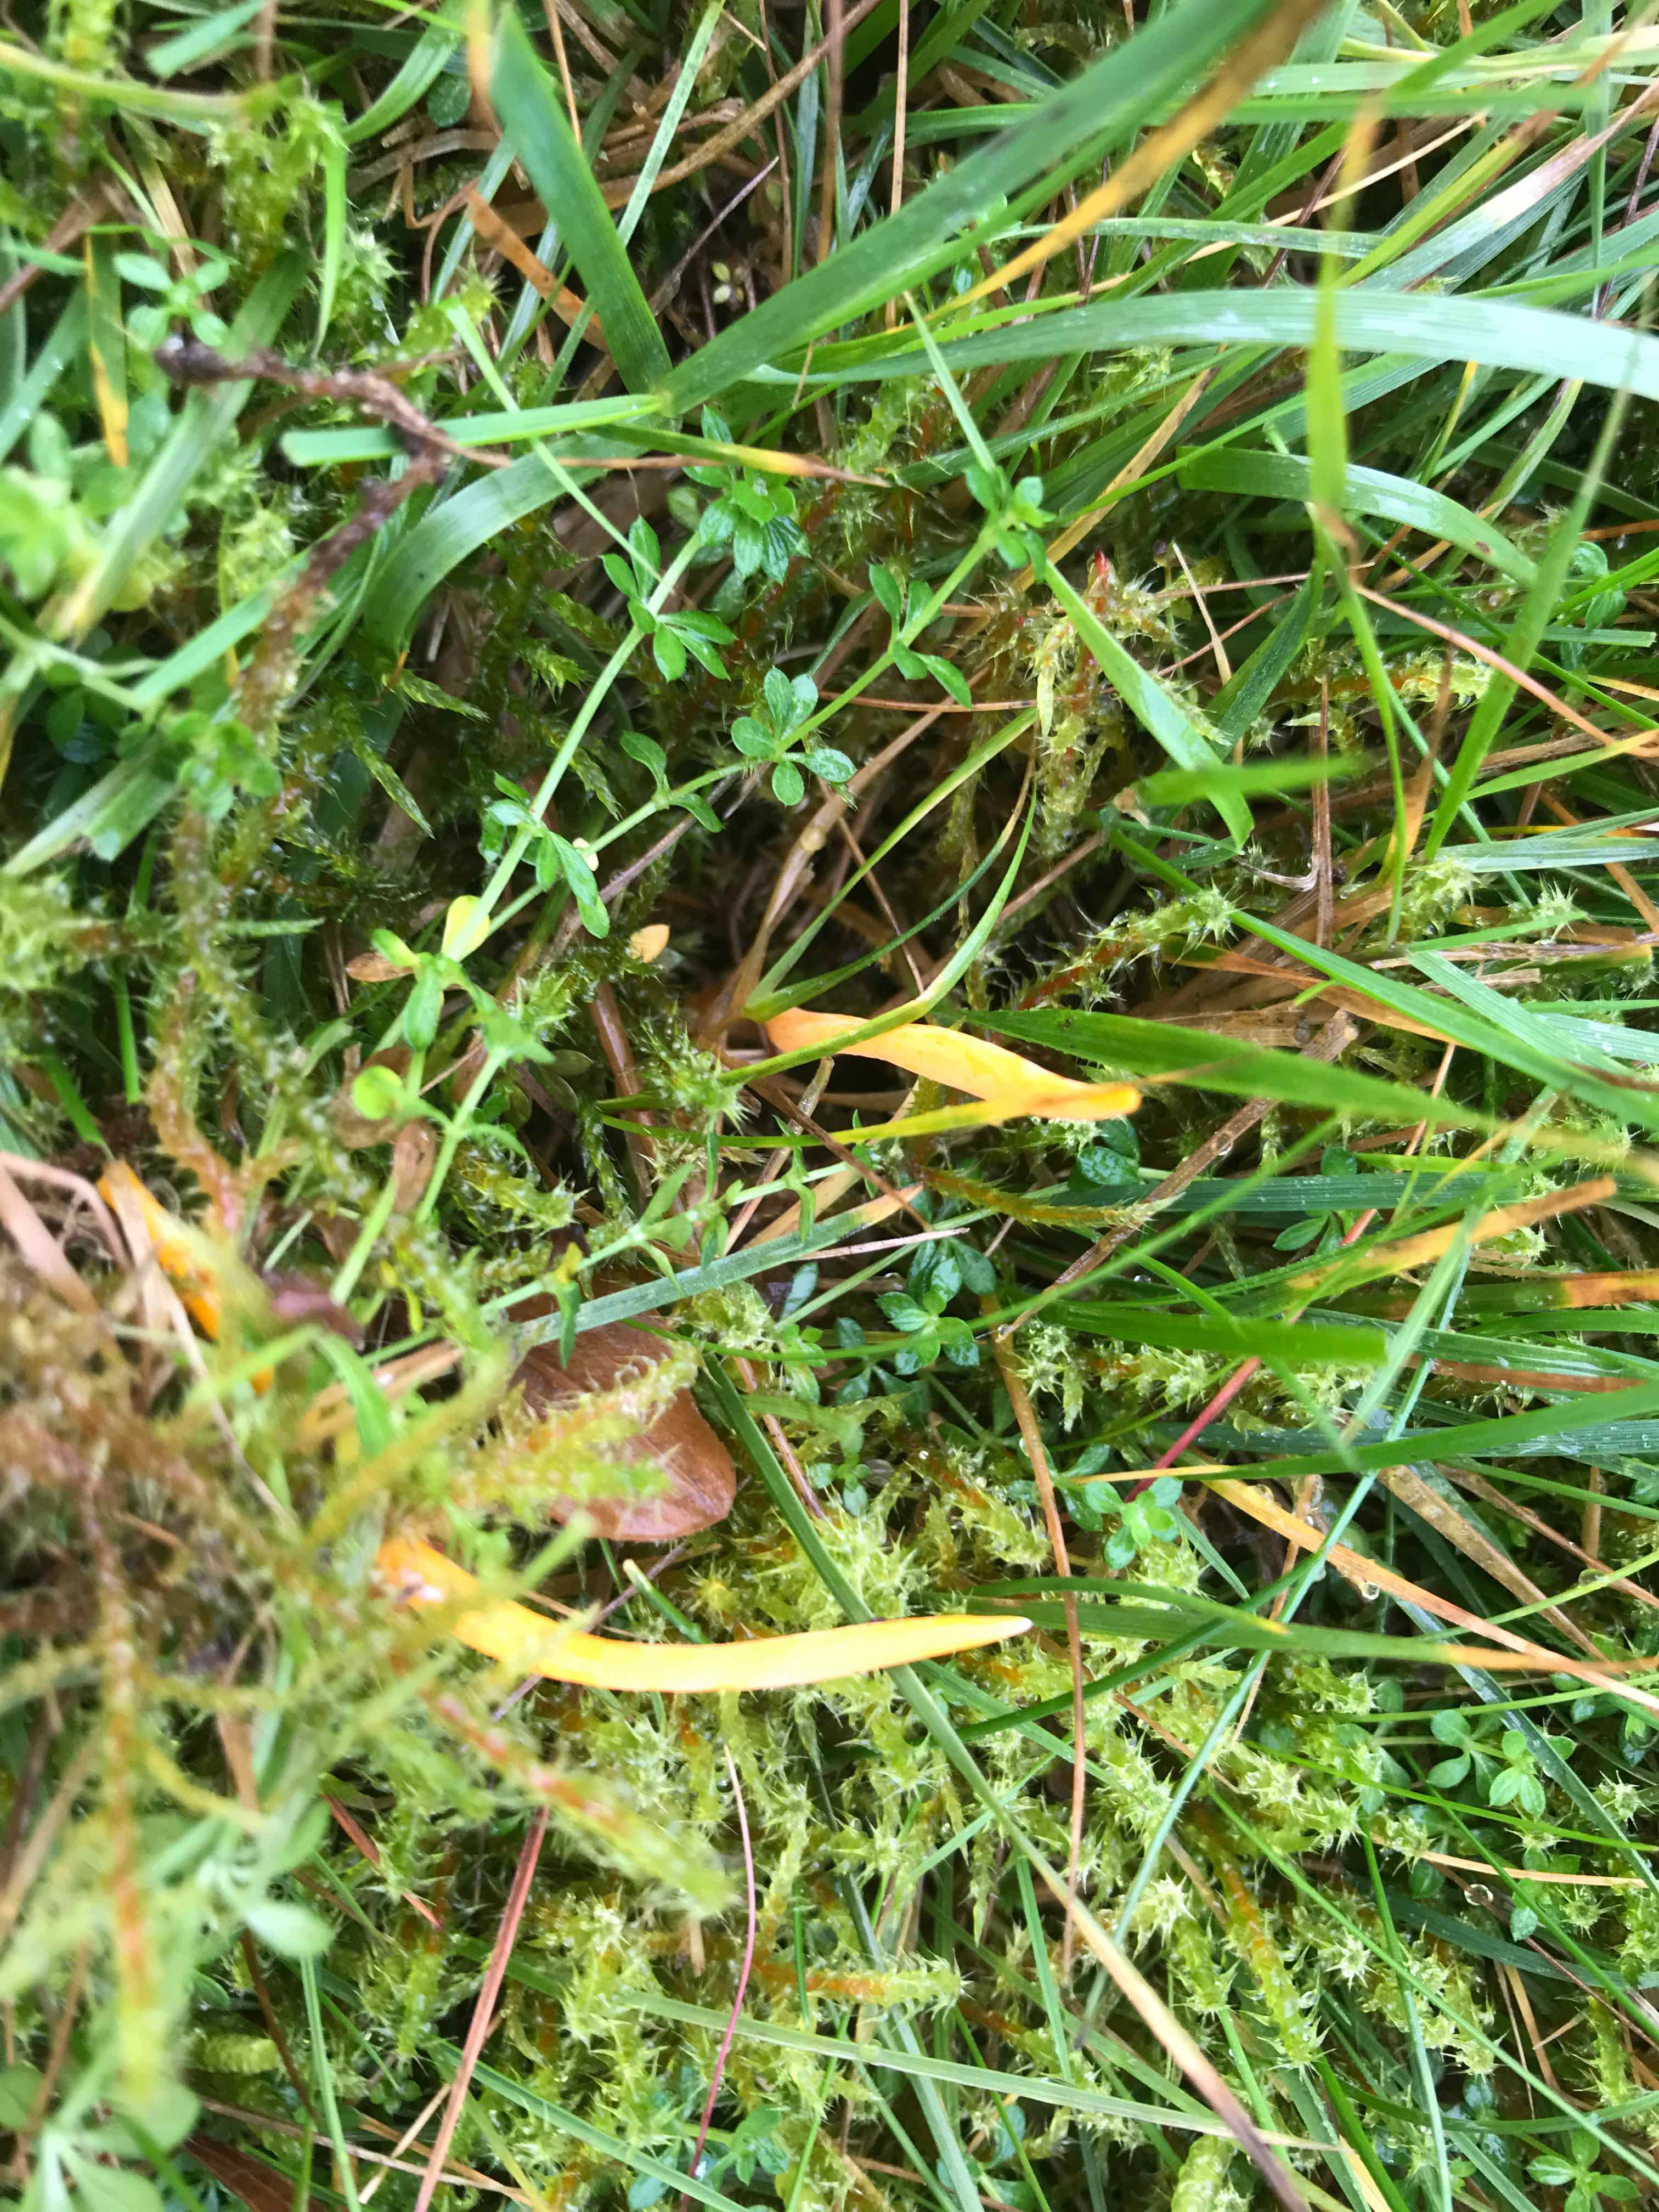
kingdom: Fungi
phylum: Basidiomycota
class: Agaricomycetes
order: Agaricales
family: Clavariaceae
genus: Clavulinopsis
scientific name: Clavulinopsis
